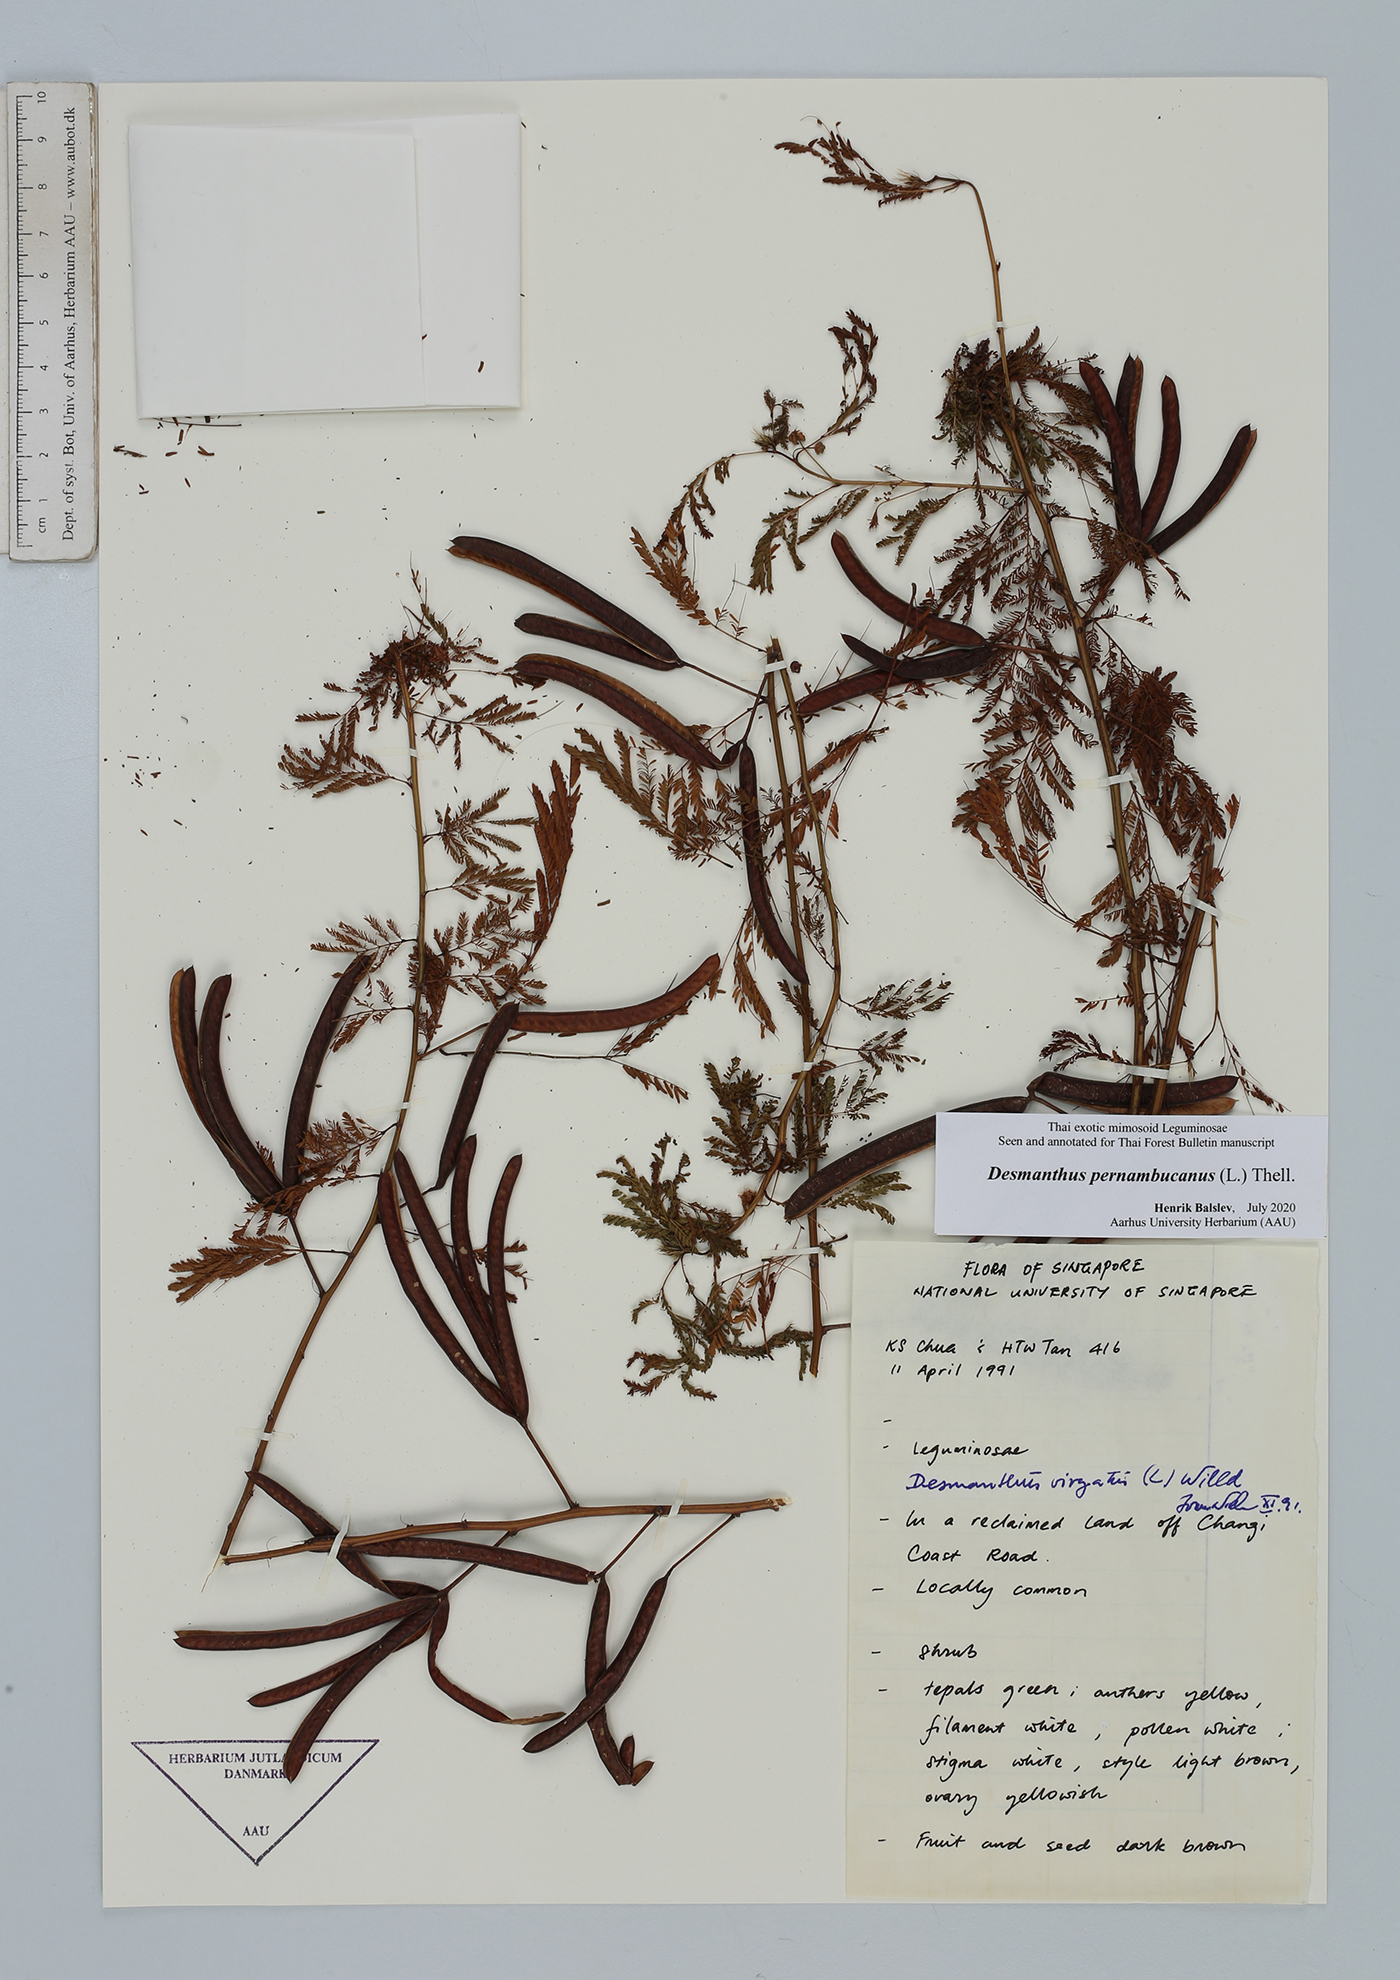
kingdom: Plantae
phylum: Tracheophyta
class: Magnoliopsida
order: Fabales
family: Fabaceae
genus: Desmanthus
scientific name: Desmanthus pernambucanus
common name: Pigeon bundleflower
